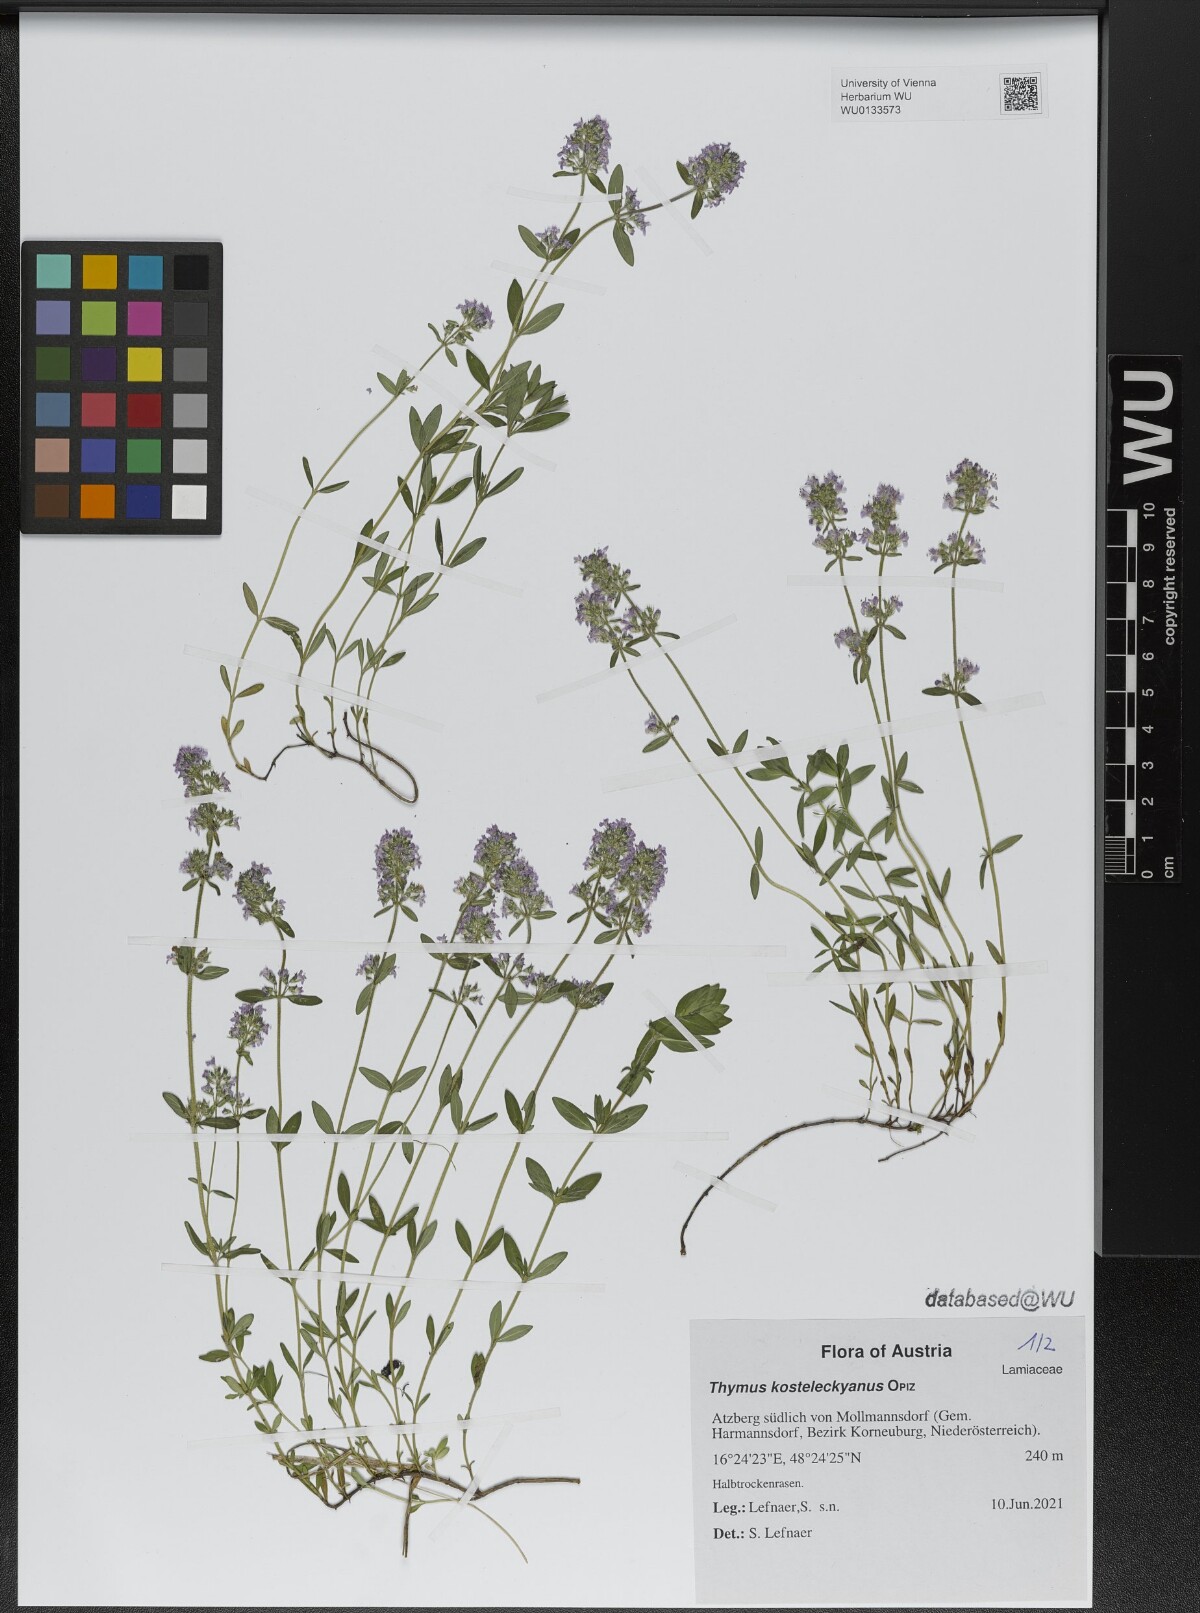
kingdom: Plantae
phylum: Tracheophyta
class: Magnoliopsida
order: Lamiales
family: Lamiaceae
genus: Thymus
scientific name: Thymus kosteleckyanus
